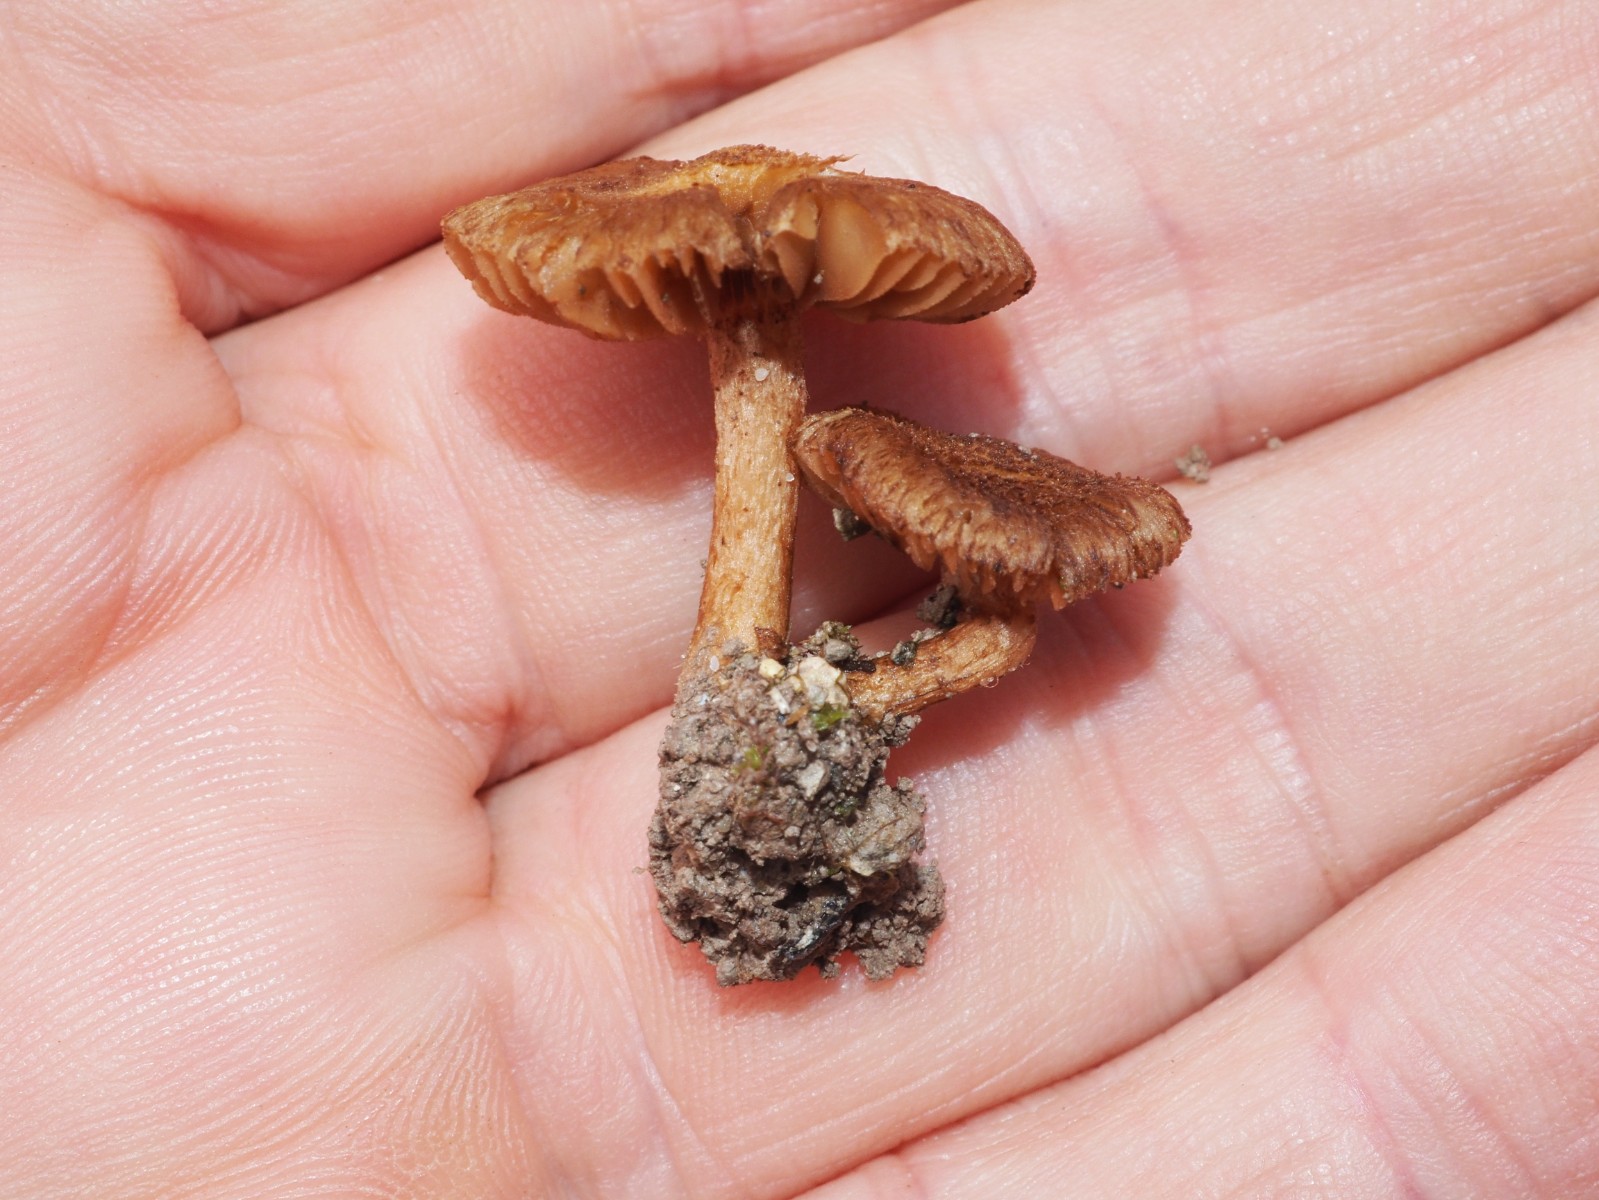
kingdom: Fungi
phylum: Basidiomycota
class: Agaricomycetes
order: Agaricales
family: Inocybaceae
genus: Inocybe
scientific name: Inocybe
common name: trævlhat
